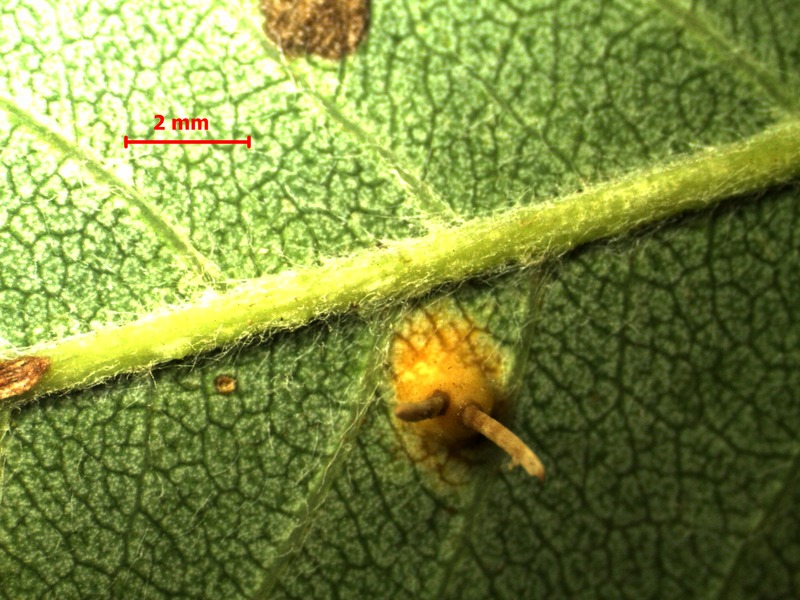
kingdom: Fungi
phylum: Basidiomycota
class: Pucciniomycetes
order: Pucciniales
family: Gymnosporangiaceae
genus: Gymnosporangium
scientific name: Gymnosporangium cornutum
